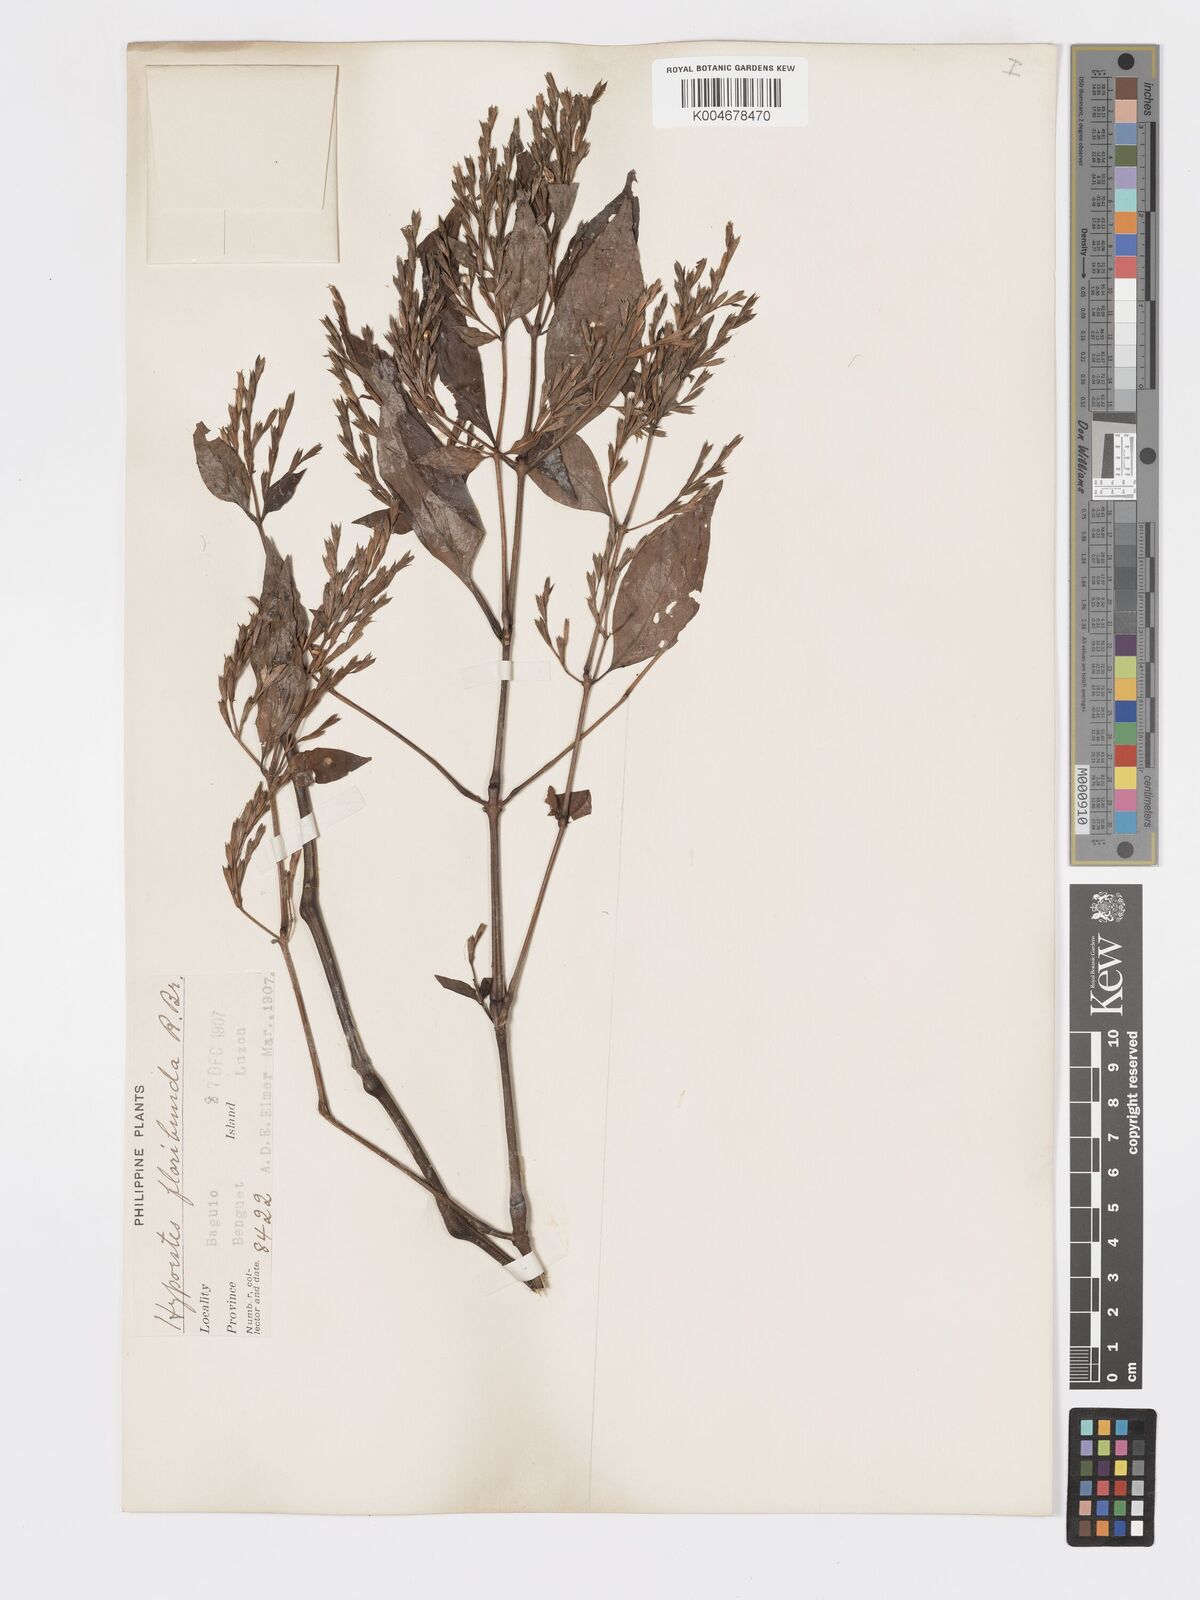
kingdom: Plantae
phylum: Tracheophyta
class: Magnoliopsida
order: Lamiales
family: Acanthaceae
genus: Hypoestes
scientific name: Hypoestes floribunda
